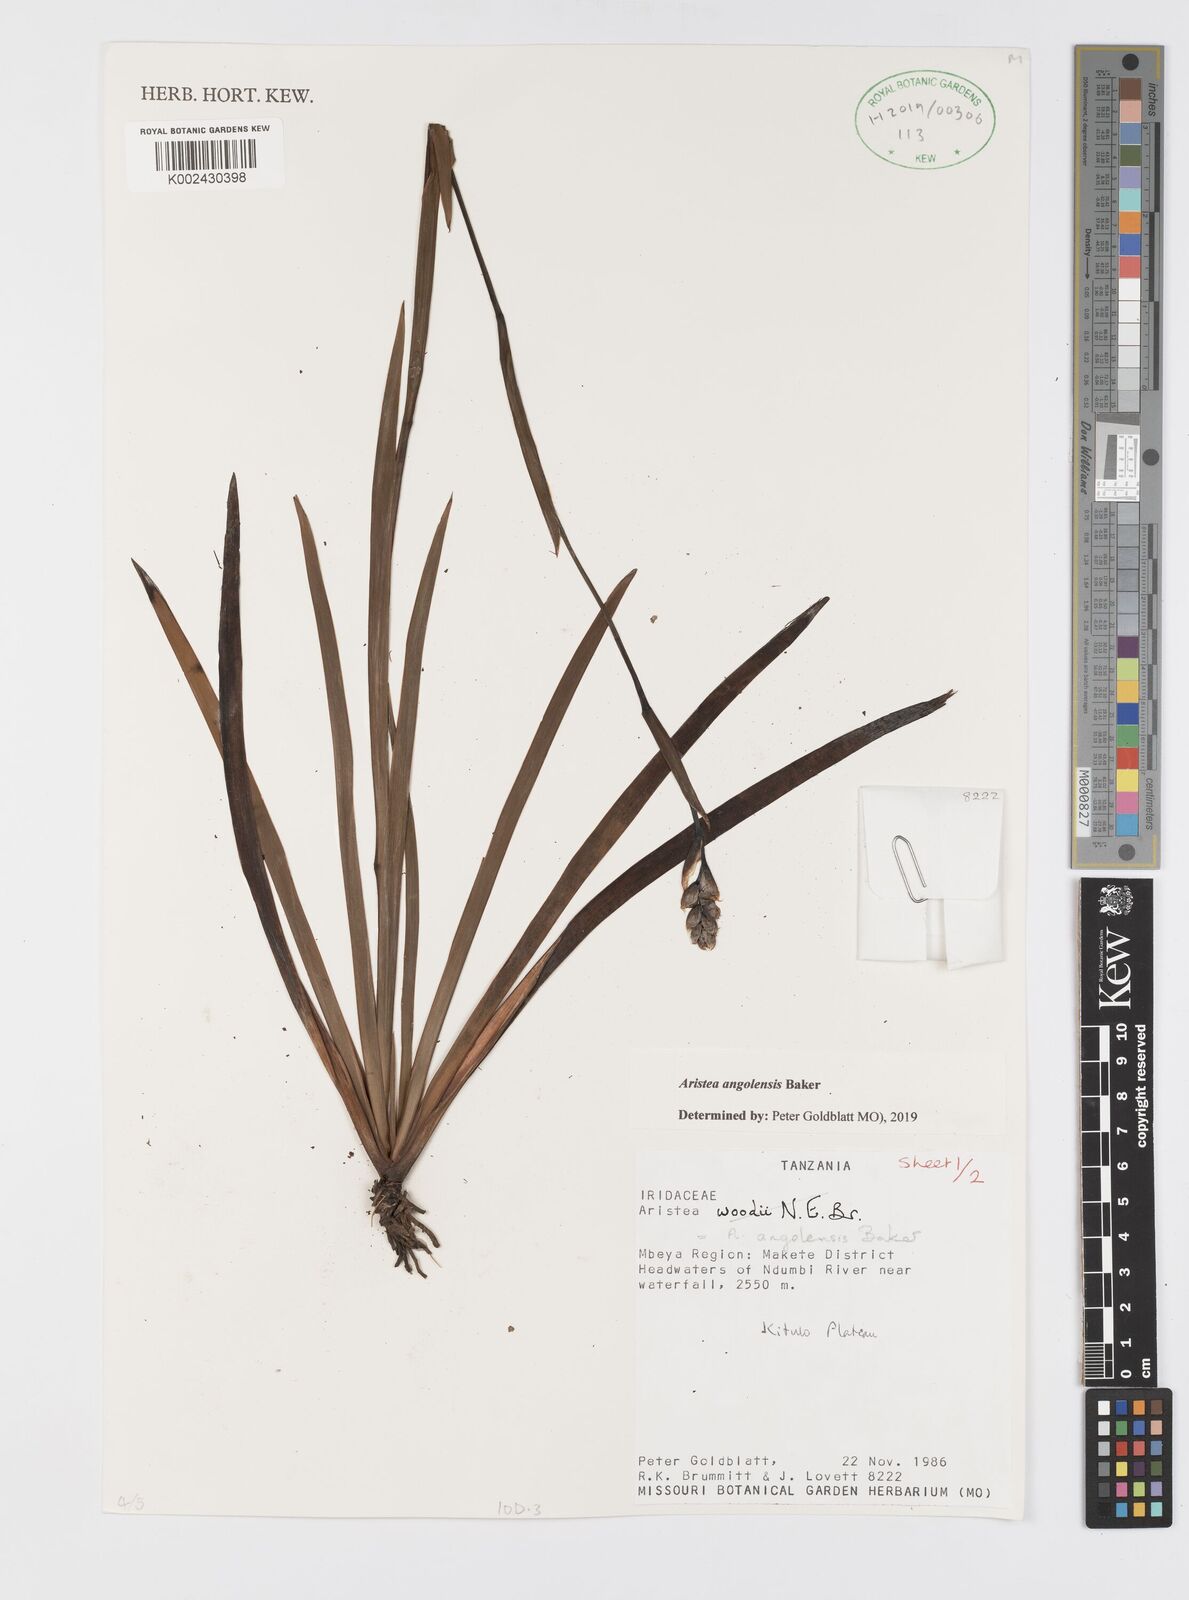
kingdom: Plantae
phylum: Tracheophyta
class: Liliopsida
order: Asparagales
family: Iridaceae
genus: Aristea
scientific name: Aristea angolensis
